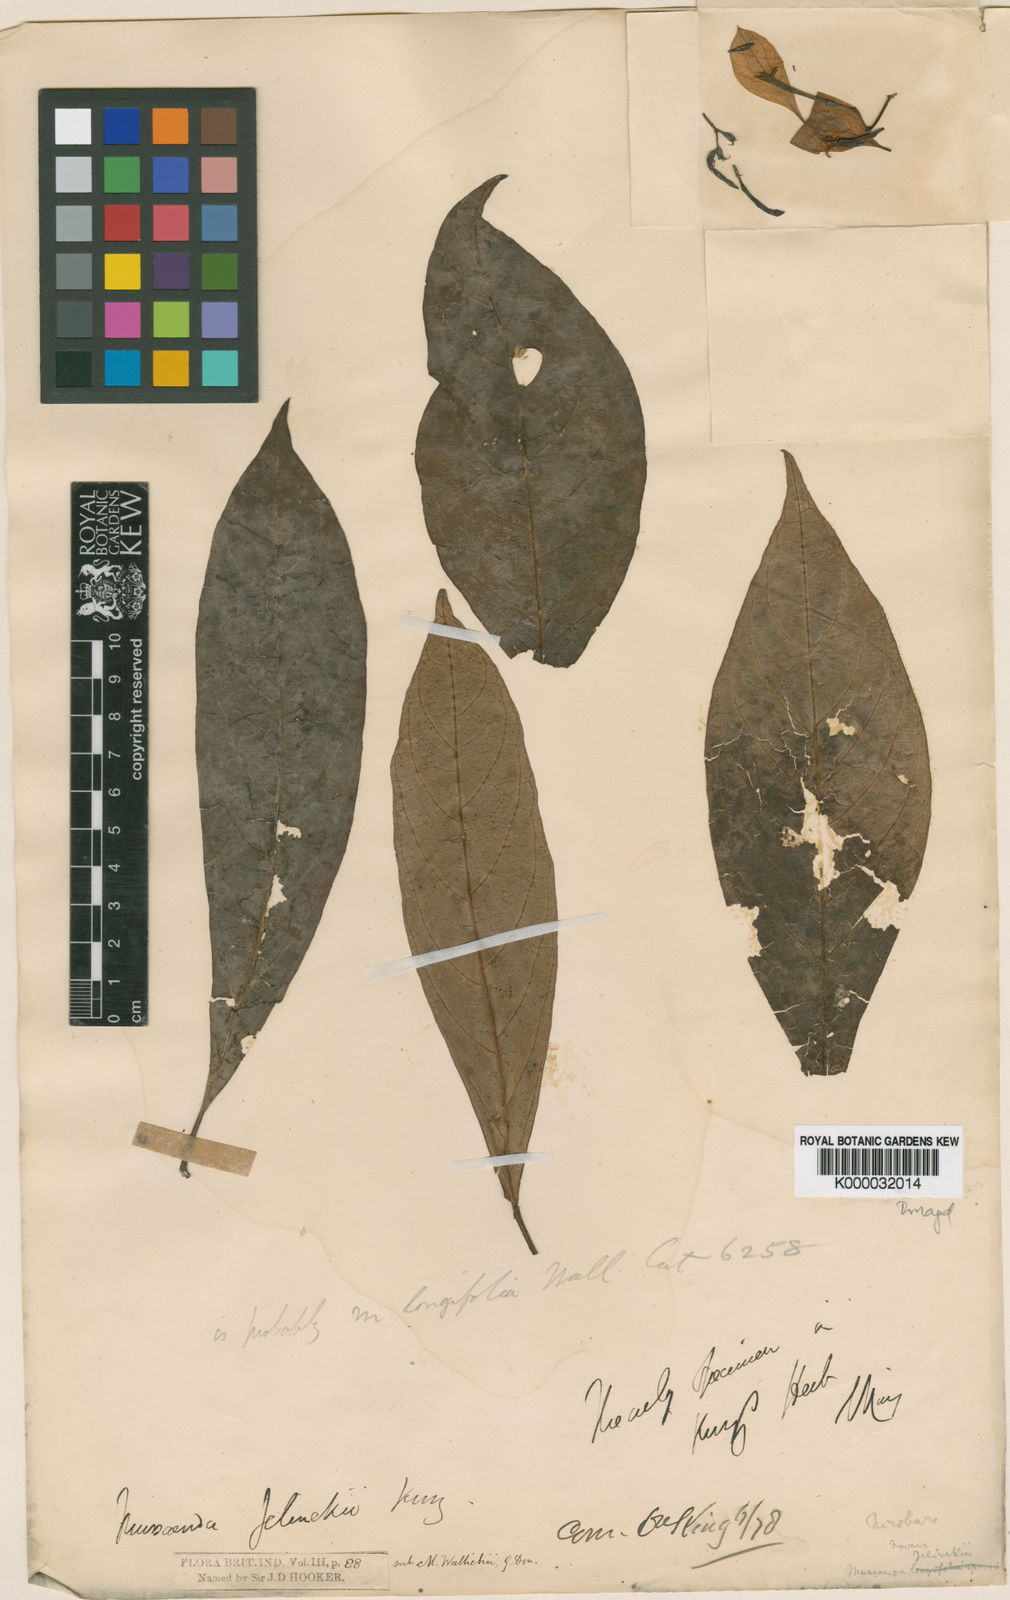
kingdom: Plantae
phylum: Tracheophyta
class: Magnoliopsida
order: Gentianales
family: Rubiaceae
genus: Mussaenda
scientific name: Mussaenda wallichii
